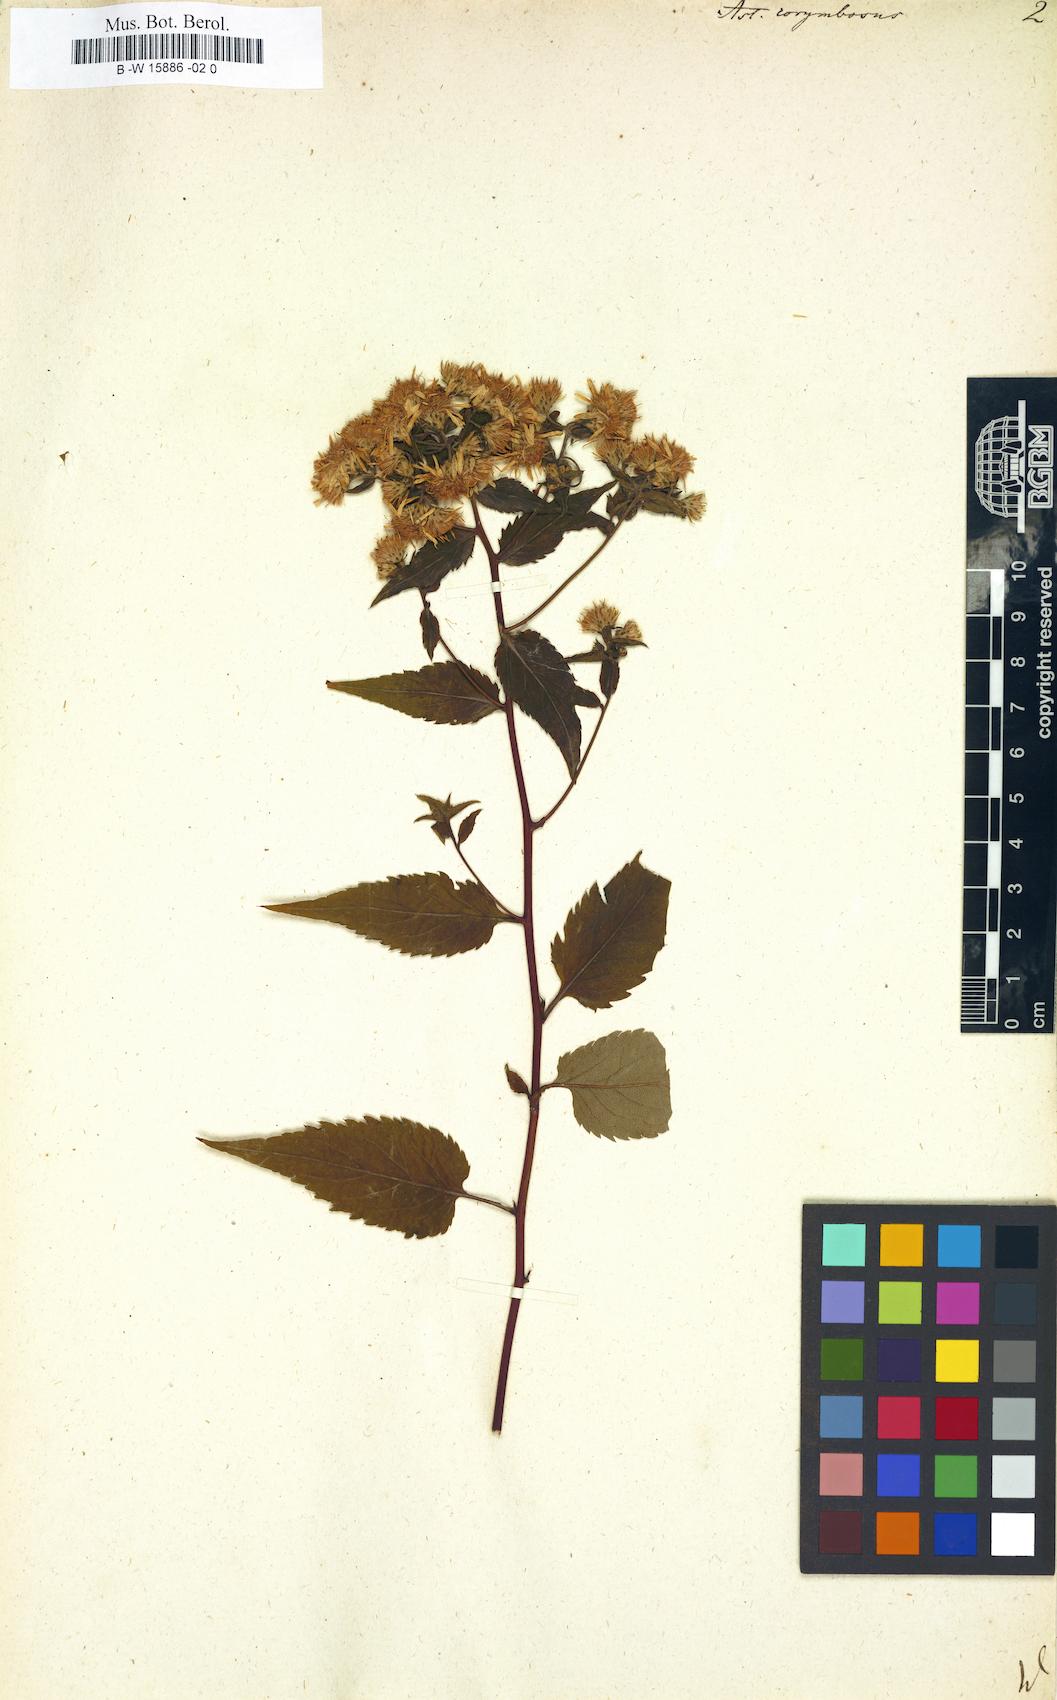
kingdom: Plantae
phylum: Tracheophyta
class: Magnoliopsida
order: Asterales
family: Asteraceae
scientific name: Asteraceae
